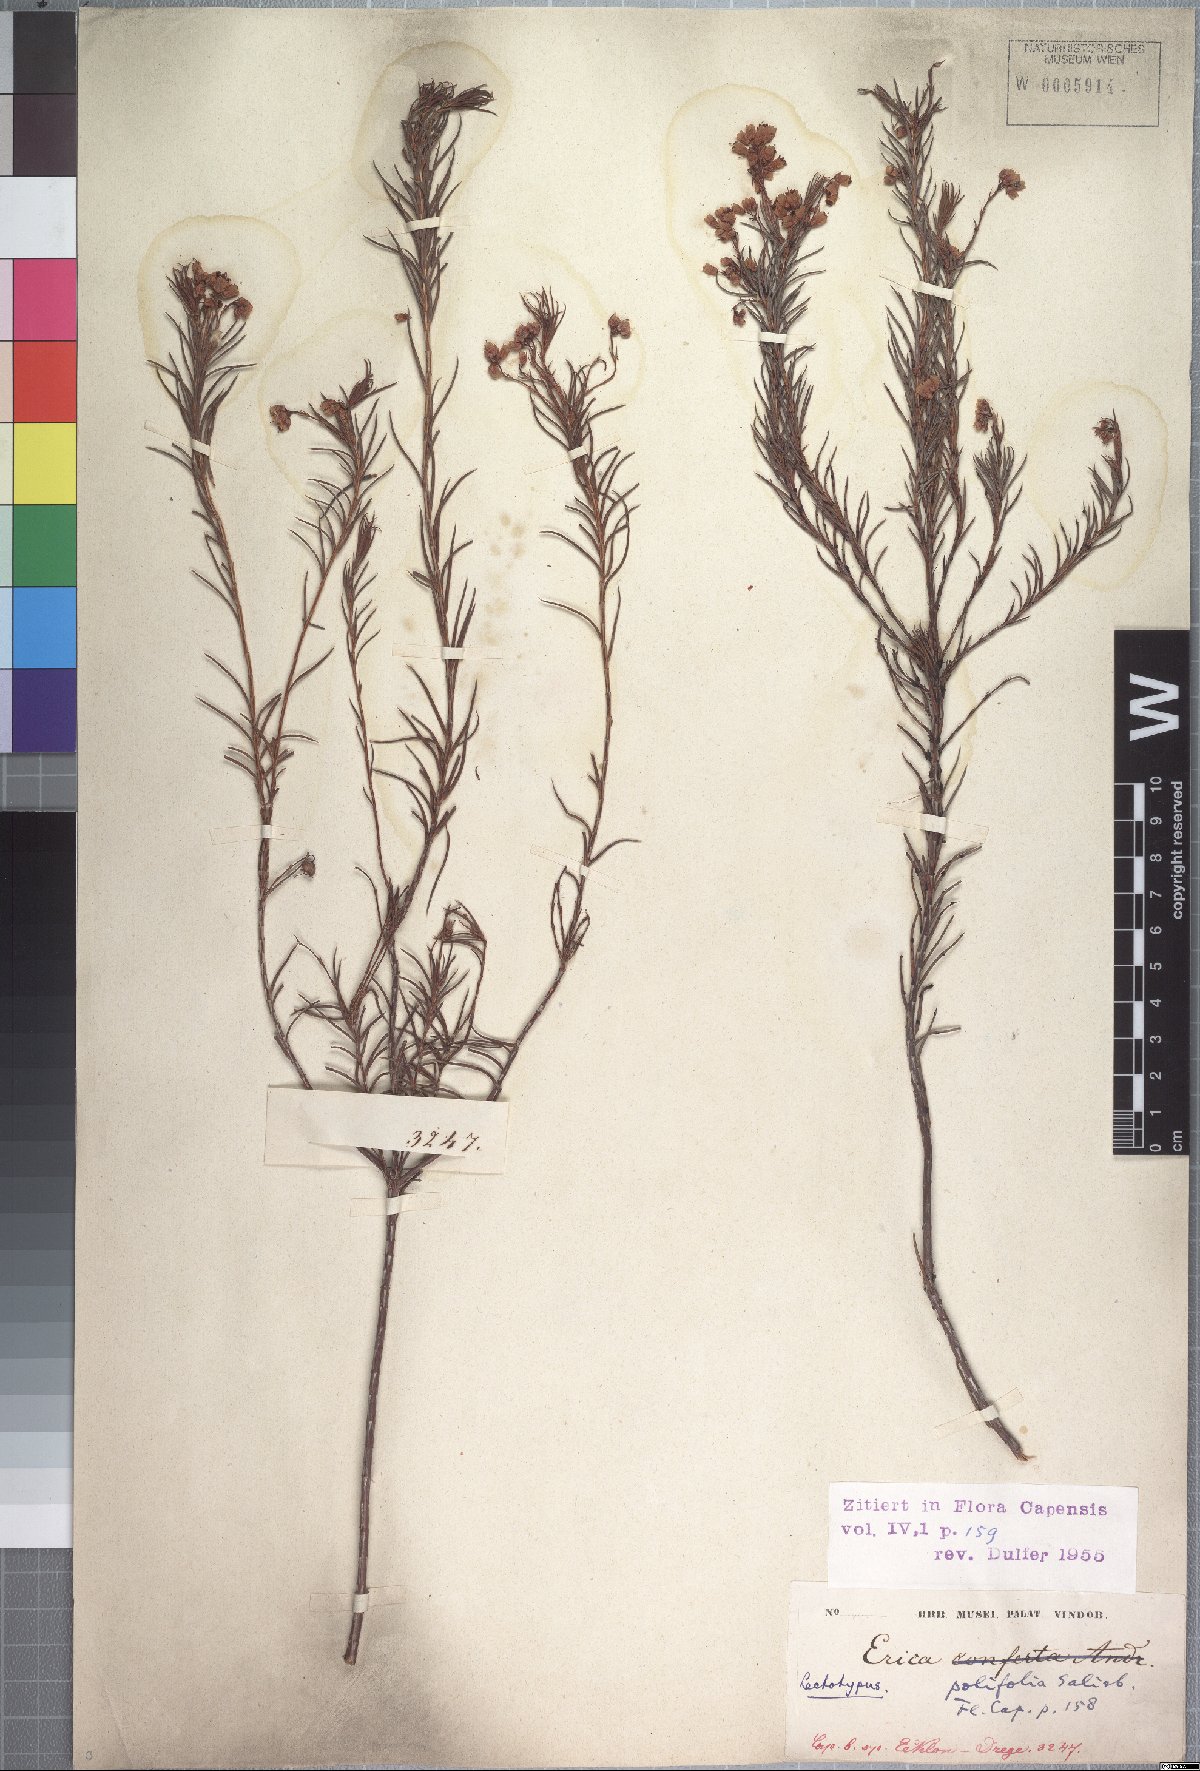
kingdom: Plantae
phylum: Tracheophyta
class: Magnoliopsida
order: Ericales
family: Ericaceae
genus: Erica
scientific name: Erica polifolia
